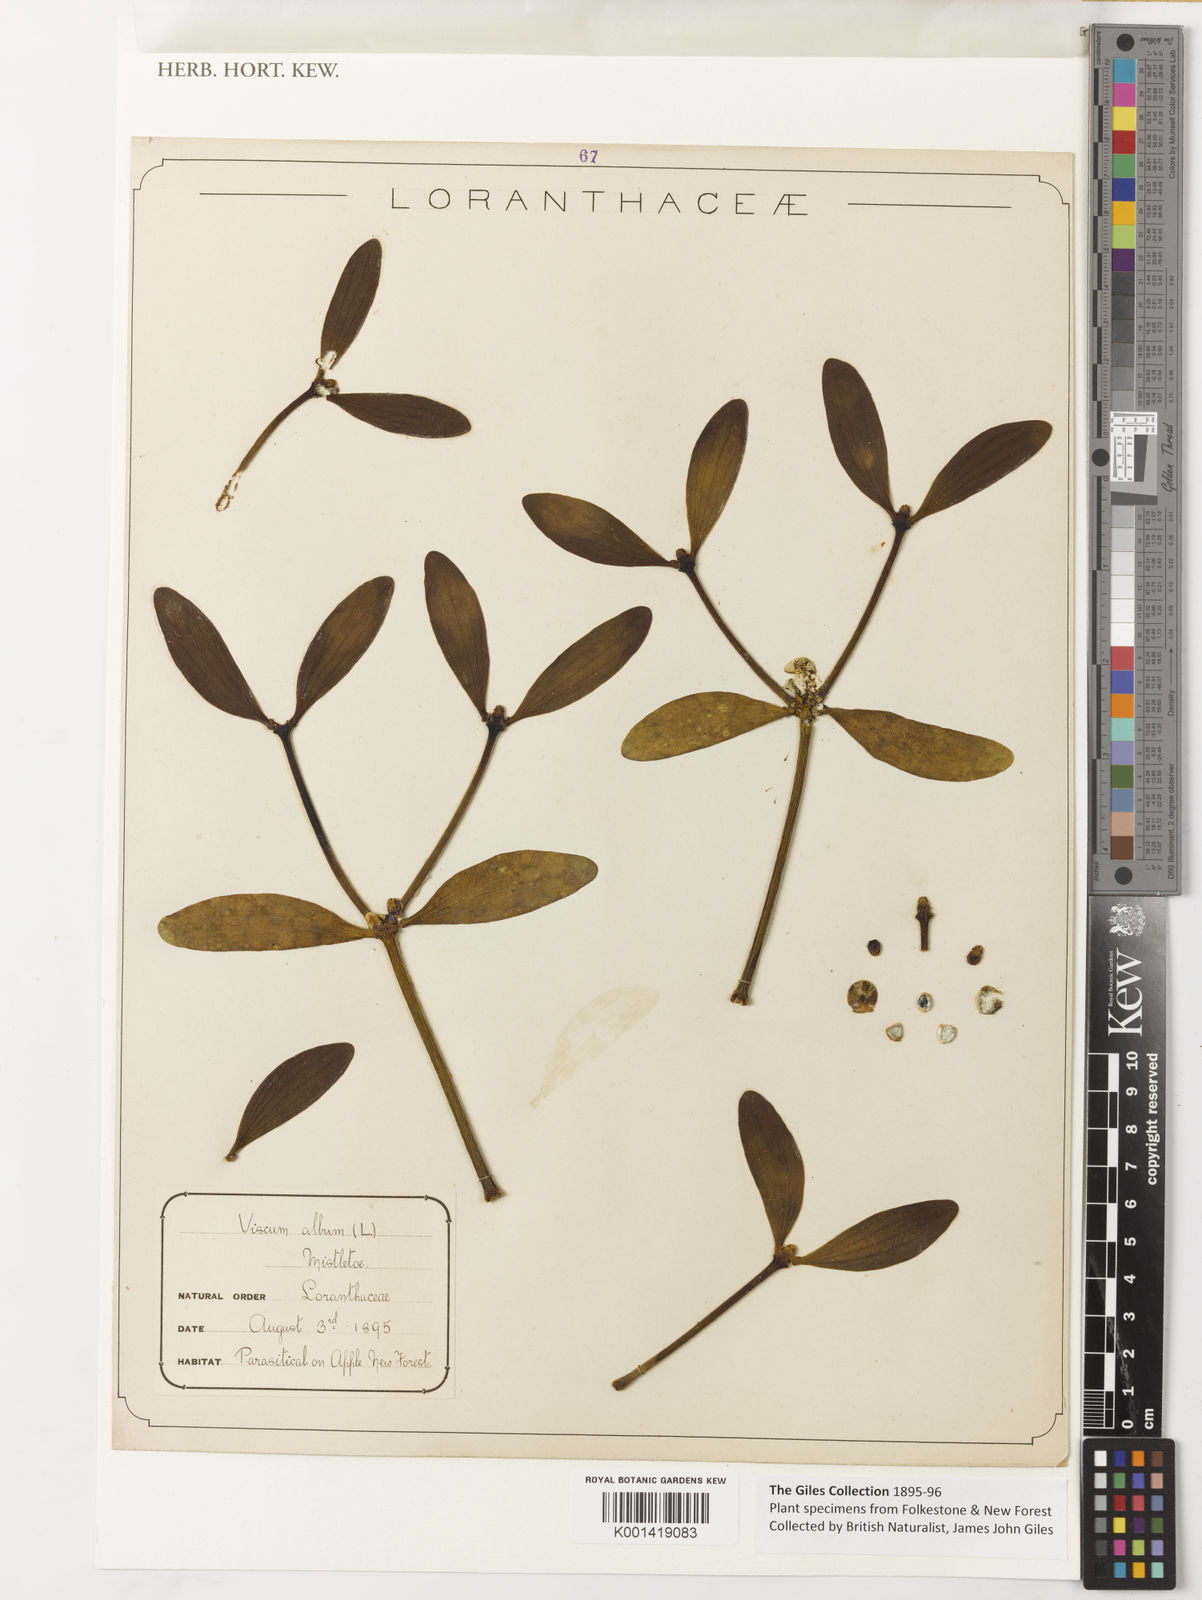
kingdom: Plantae
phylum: Tracheophyta
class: Magnoliopsida
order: Santalales
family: Viscaceae
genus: Viscum
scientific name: Viscum album
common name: Mistletoe
